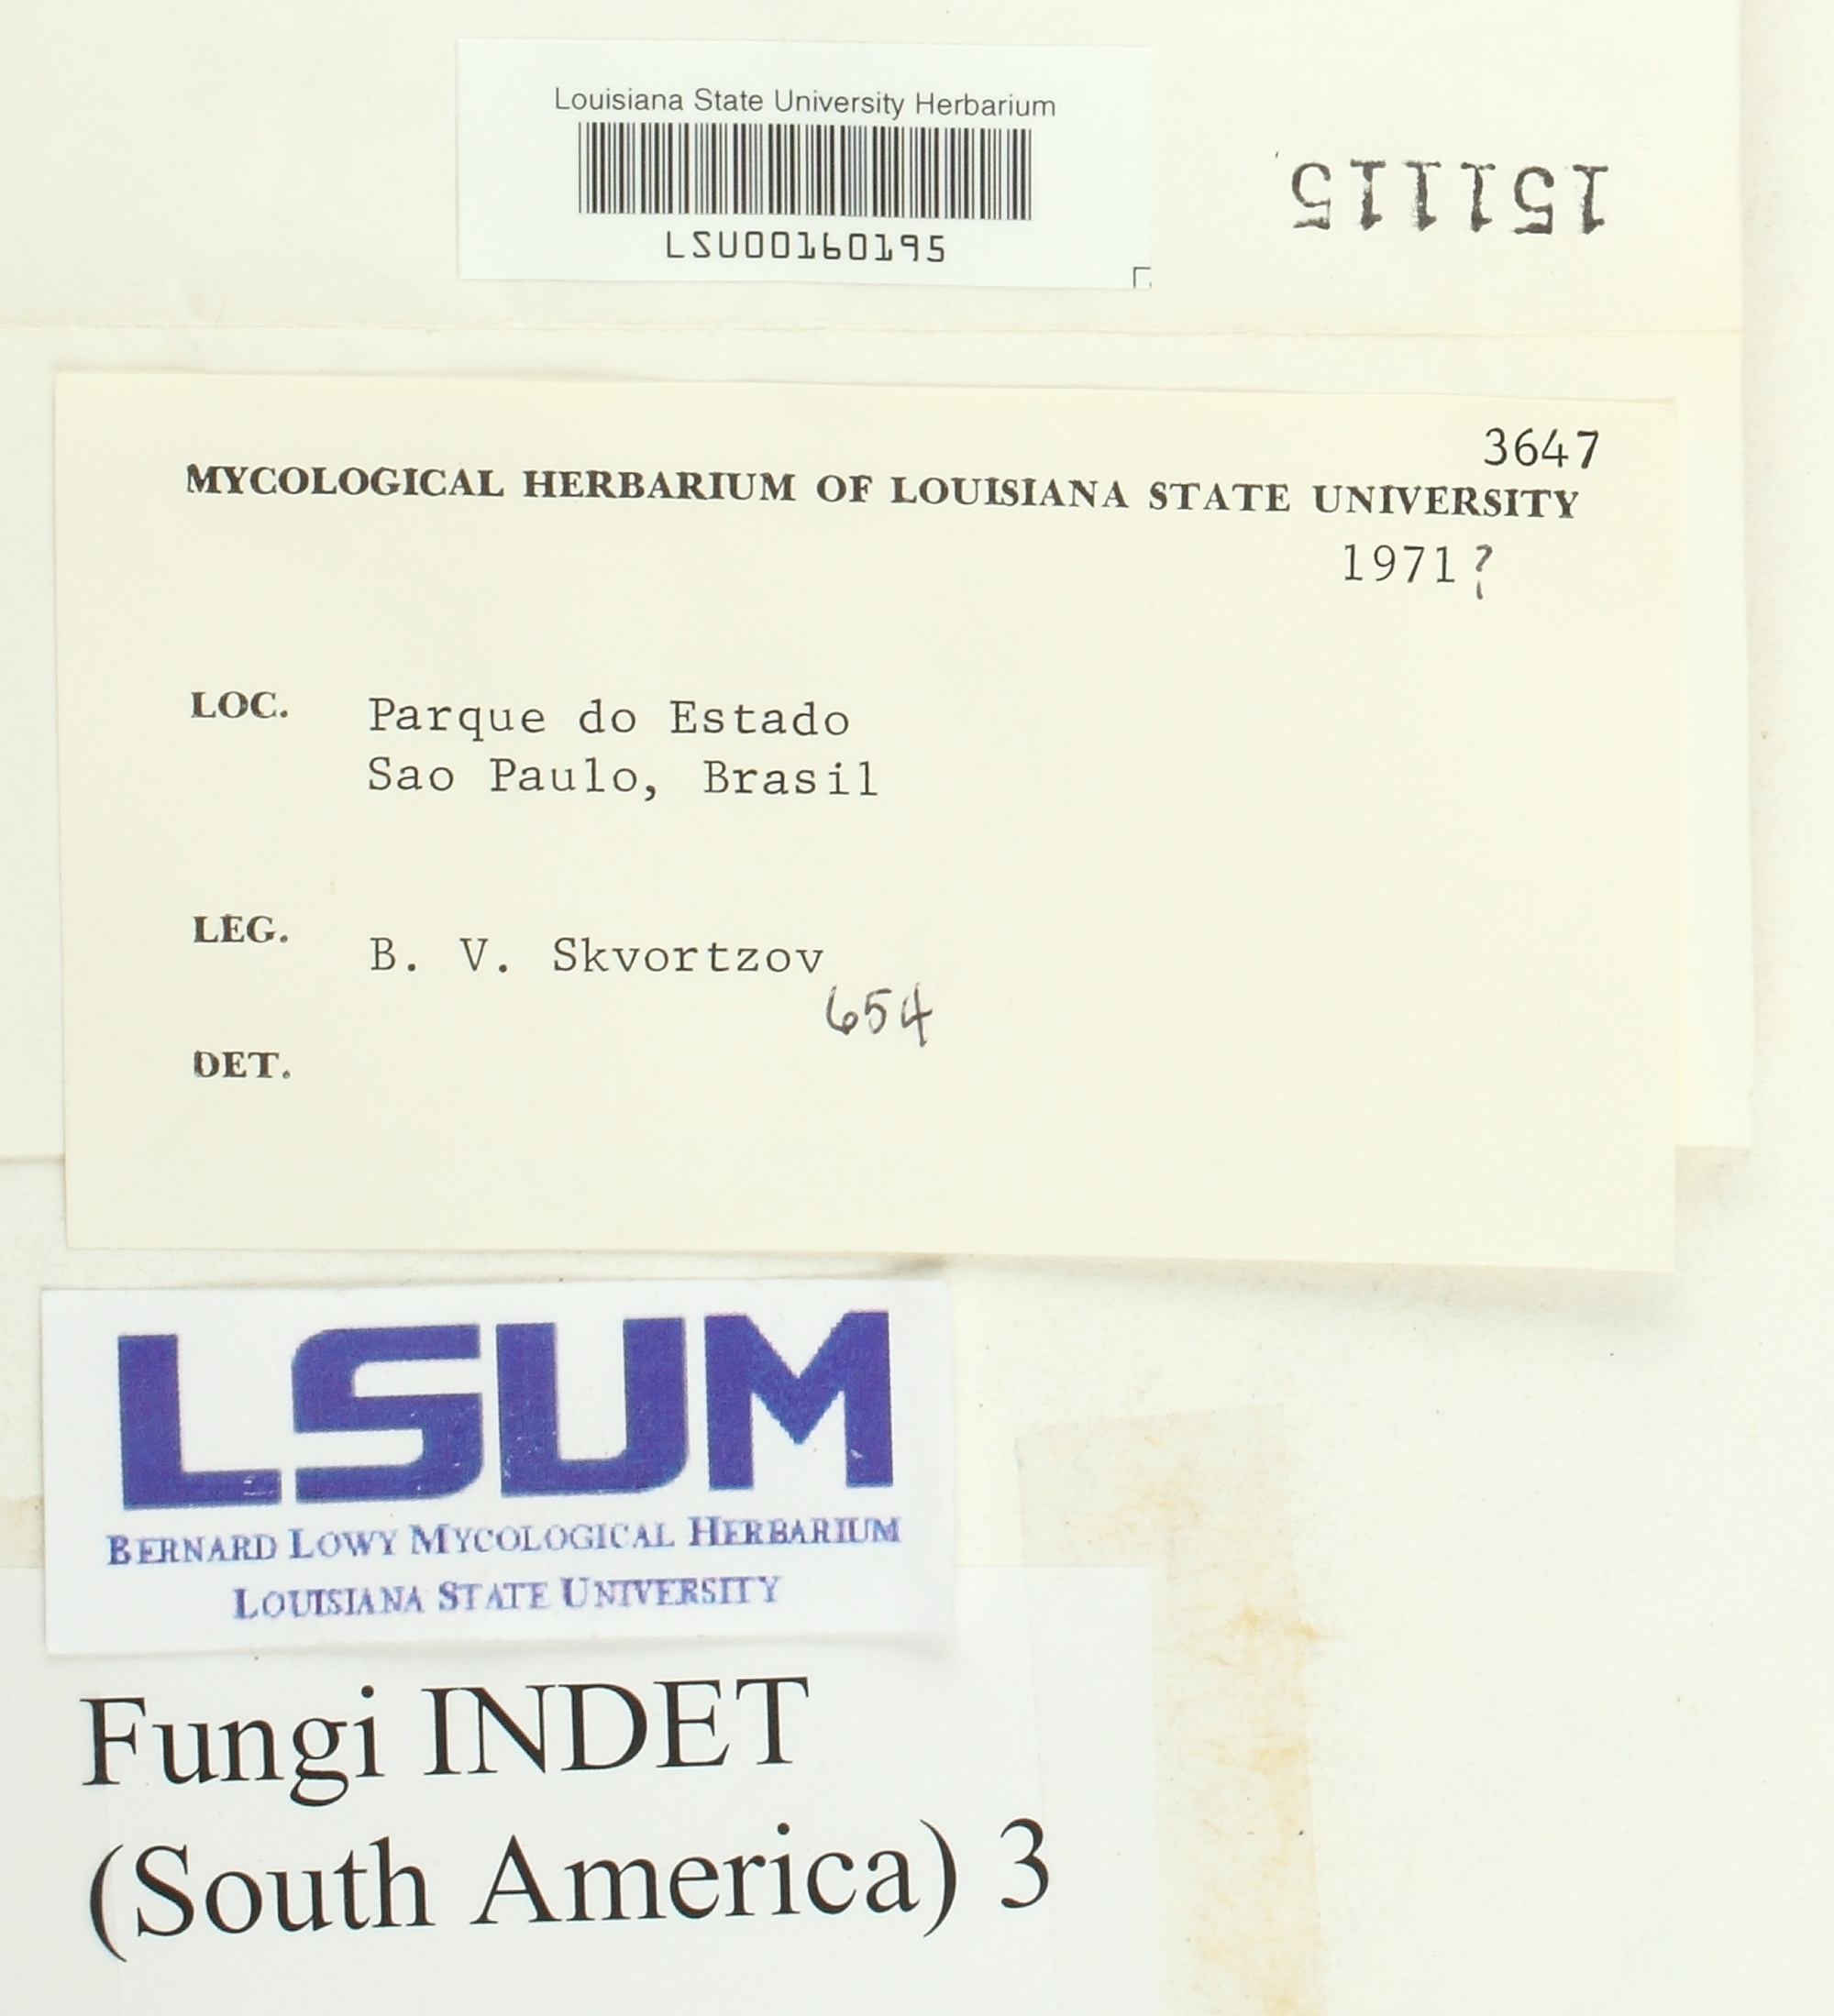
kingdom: Fungi
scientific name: Fungi
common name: Fungi
